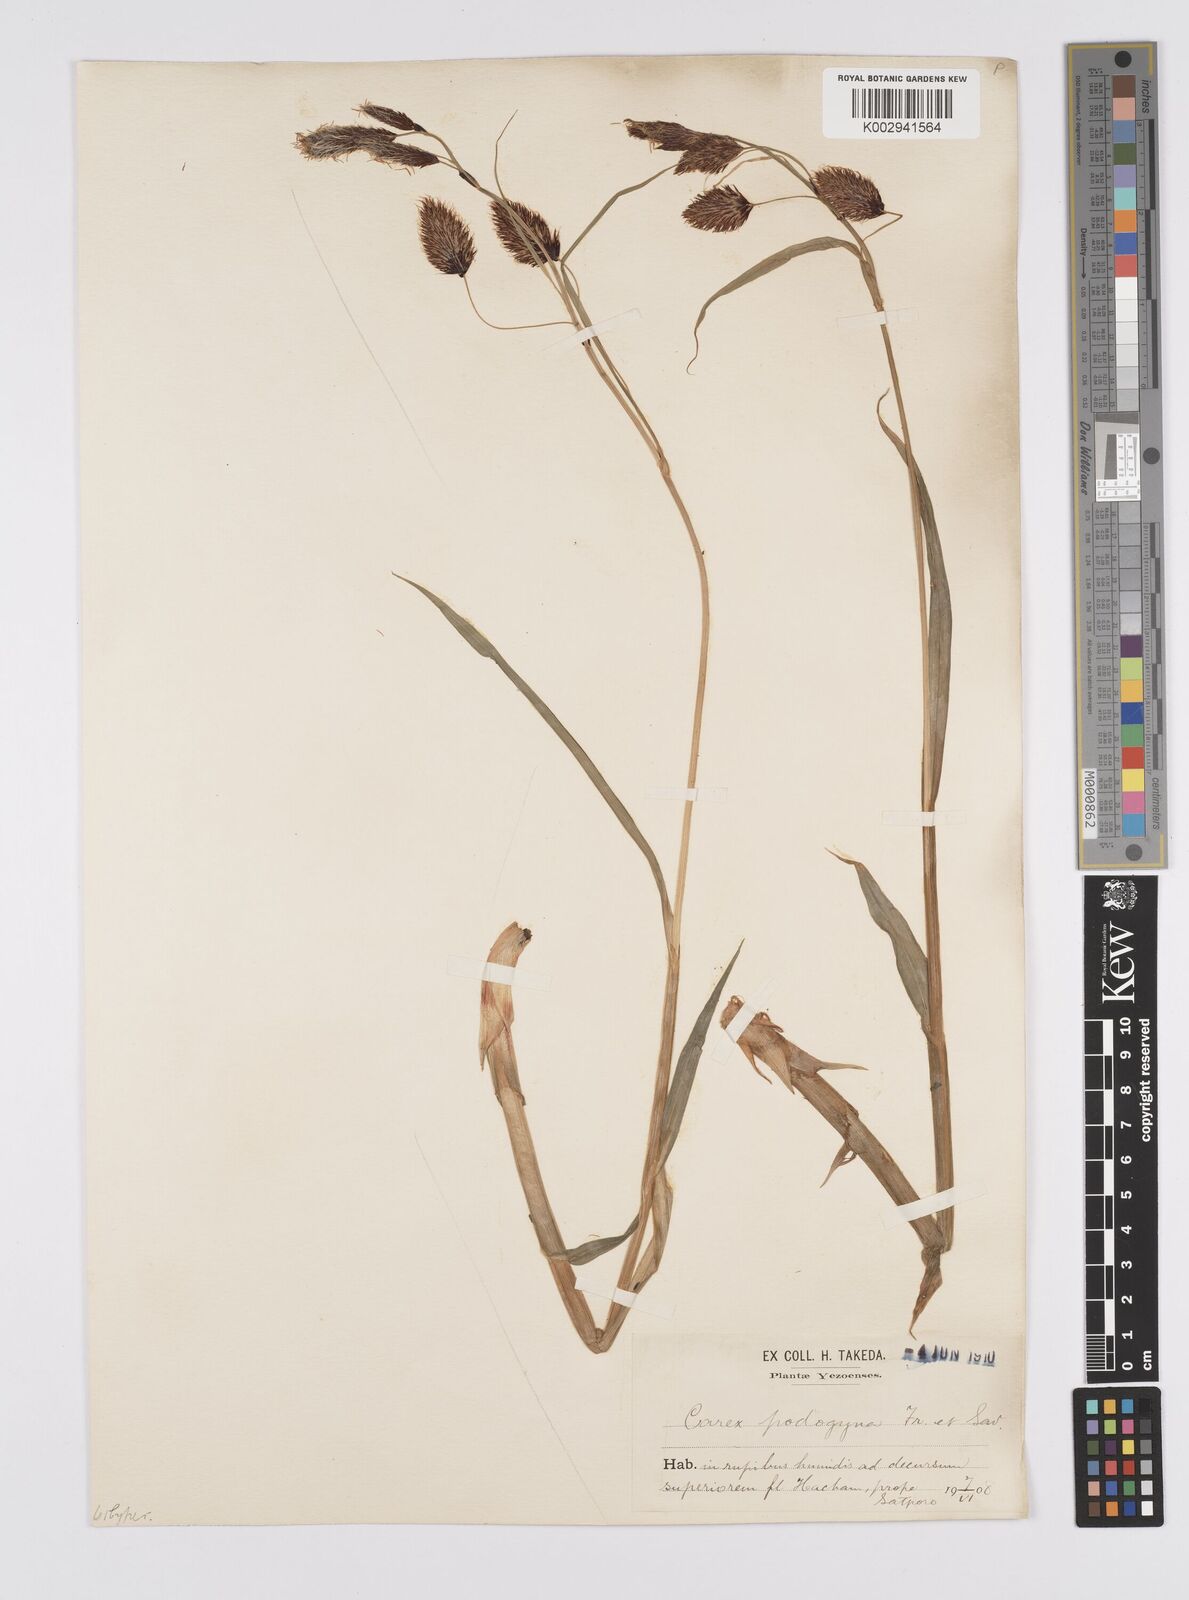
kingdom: Plantae
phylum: Tracheophyta
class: Liliopsida
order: Poales
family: Cyperaceae
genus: Carex
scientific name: Carex podogyna
